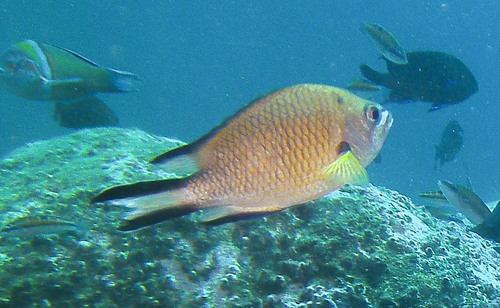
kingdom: Animalia
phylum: Chordata
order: Perciformes
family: Pomacentridae
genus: Chromis
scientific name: Chromis limbata
